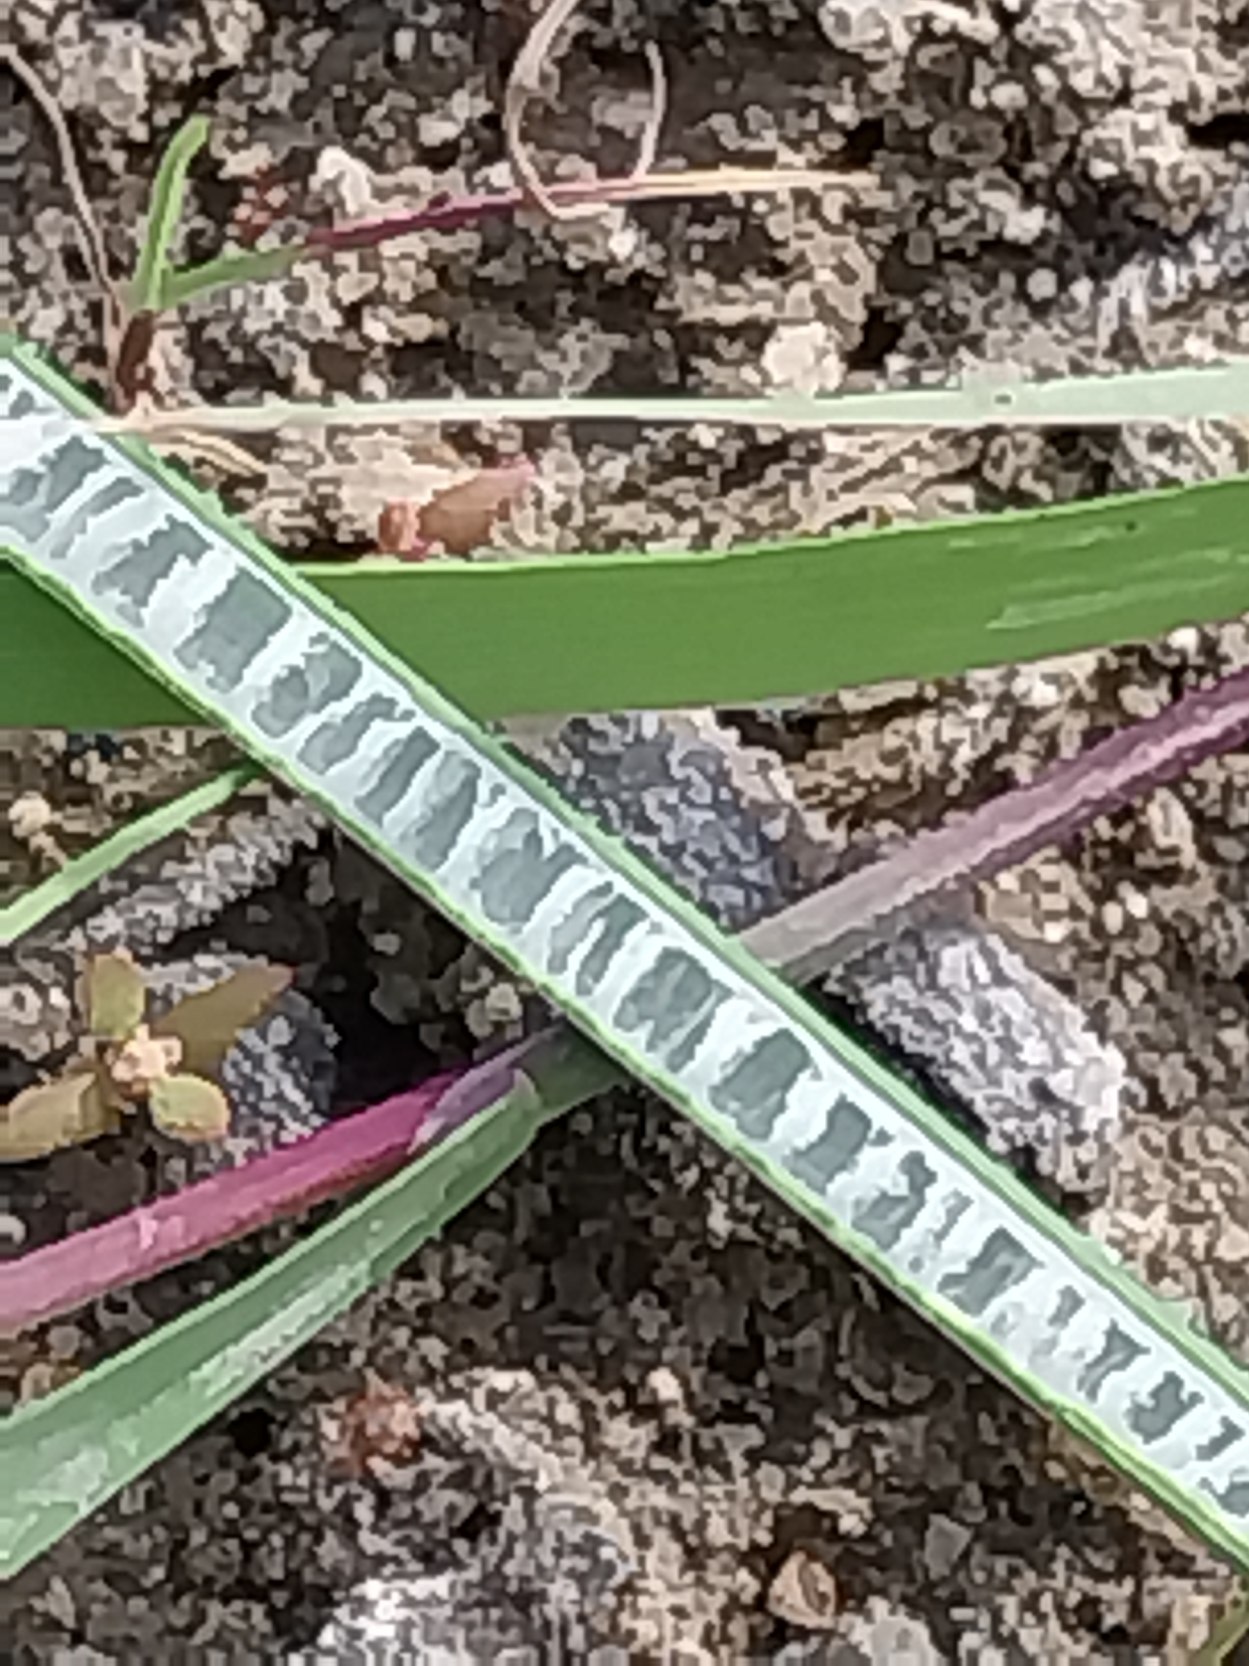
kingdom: Plantae
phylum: Tracheophyta
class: Liliopsida
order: Poales
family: Juncaceae
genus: Juncus
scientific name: Juncus inflexus
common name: Blågrå siv
